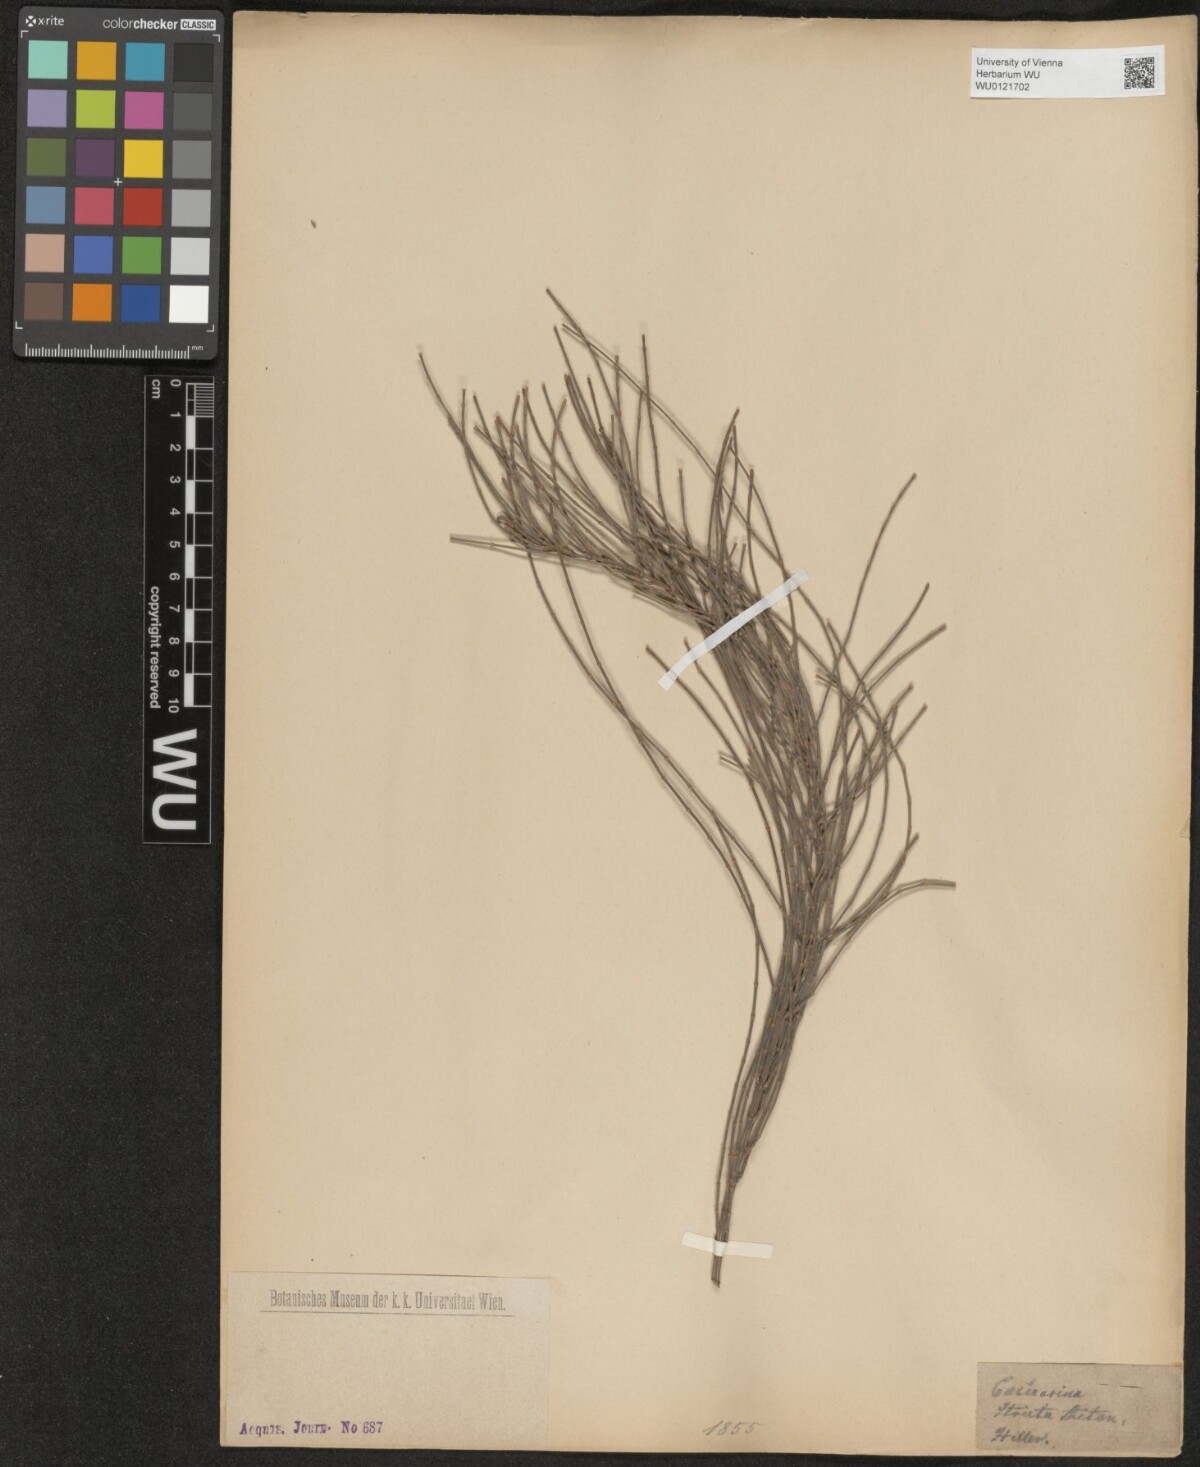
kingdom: Plantae
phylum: Tracheophyta
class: Magnoliopsida
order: Fagales
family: Casuarinaceae
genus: Casuarina
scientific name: Casuarina stricta
